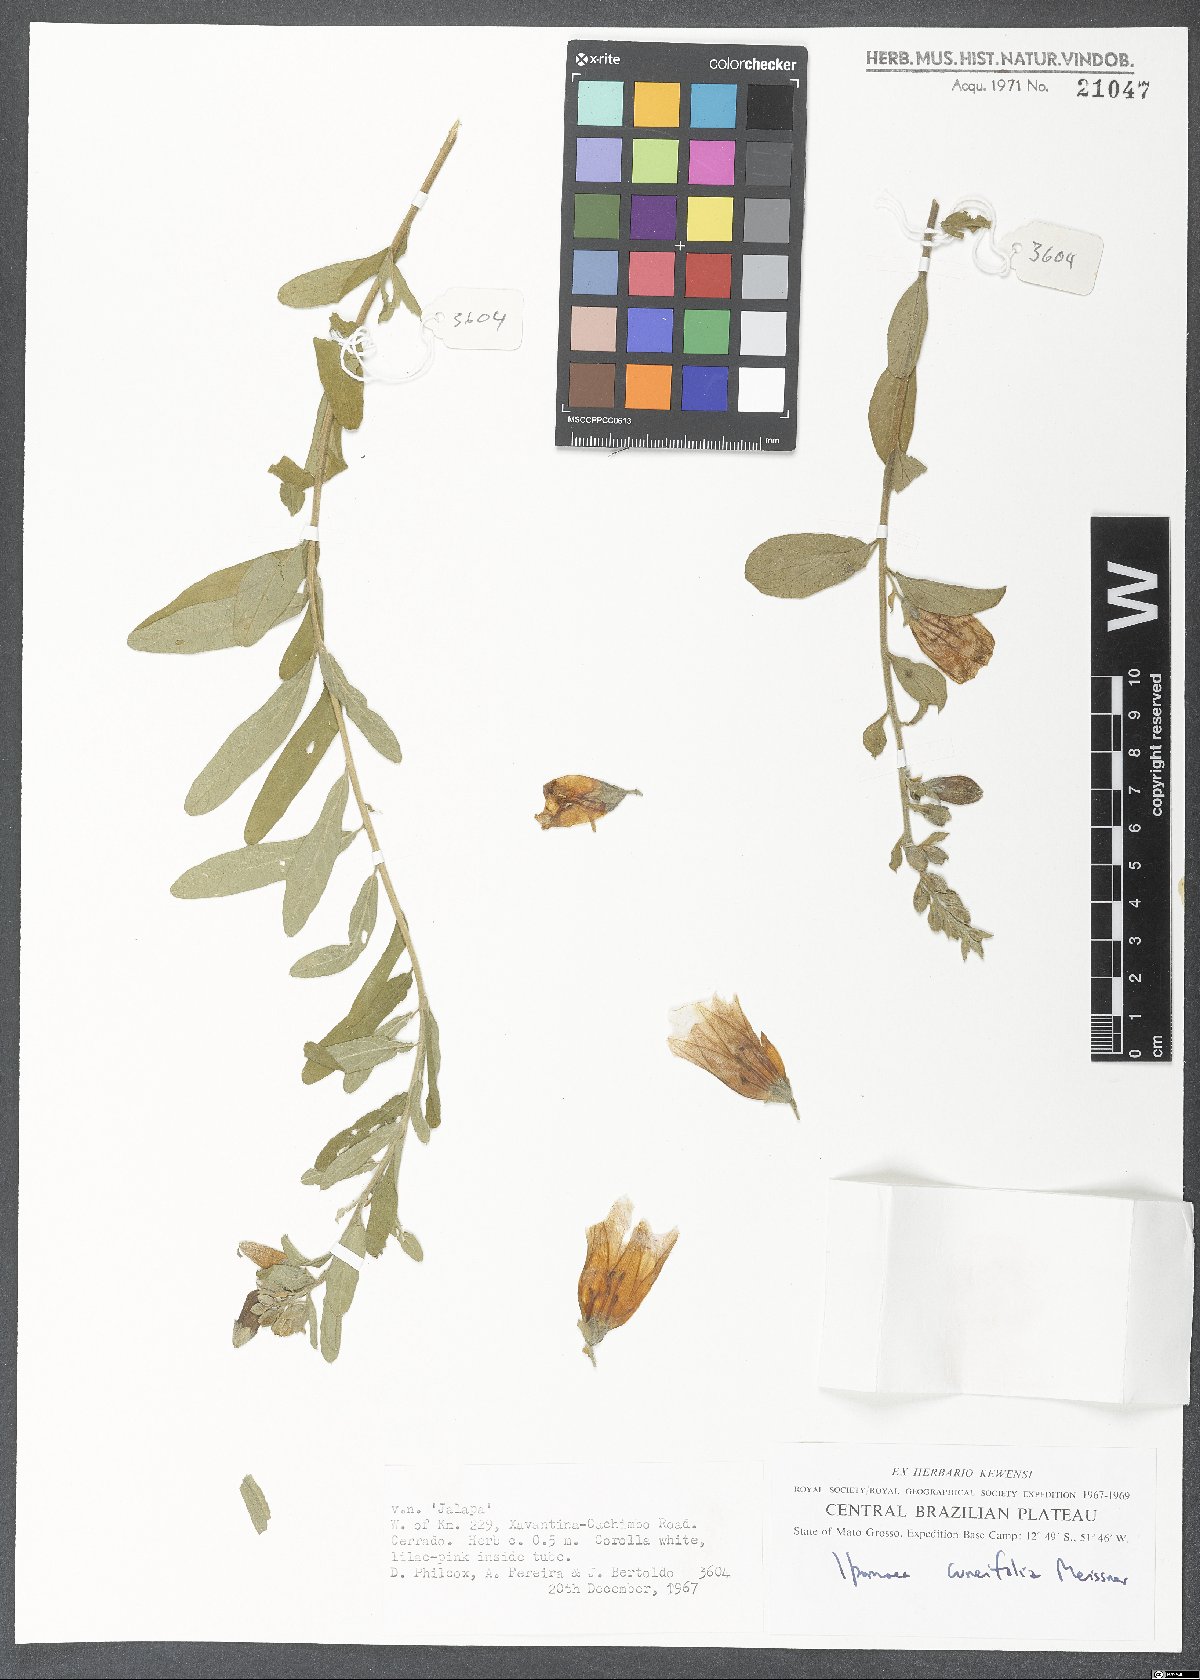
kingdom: Plantae
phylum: Tracheophyta
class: Magnoliopsida
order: Solanales
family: Convolvulaceae
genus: Ipomoea
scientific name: Ipomoea cuneifolia
